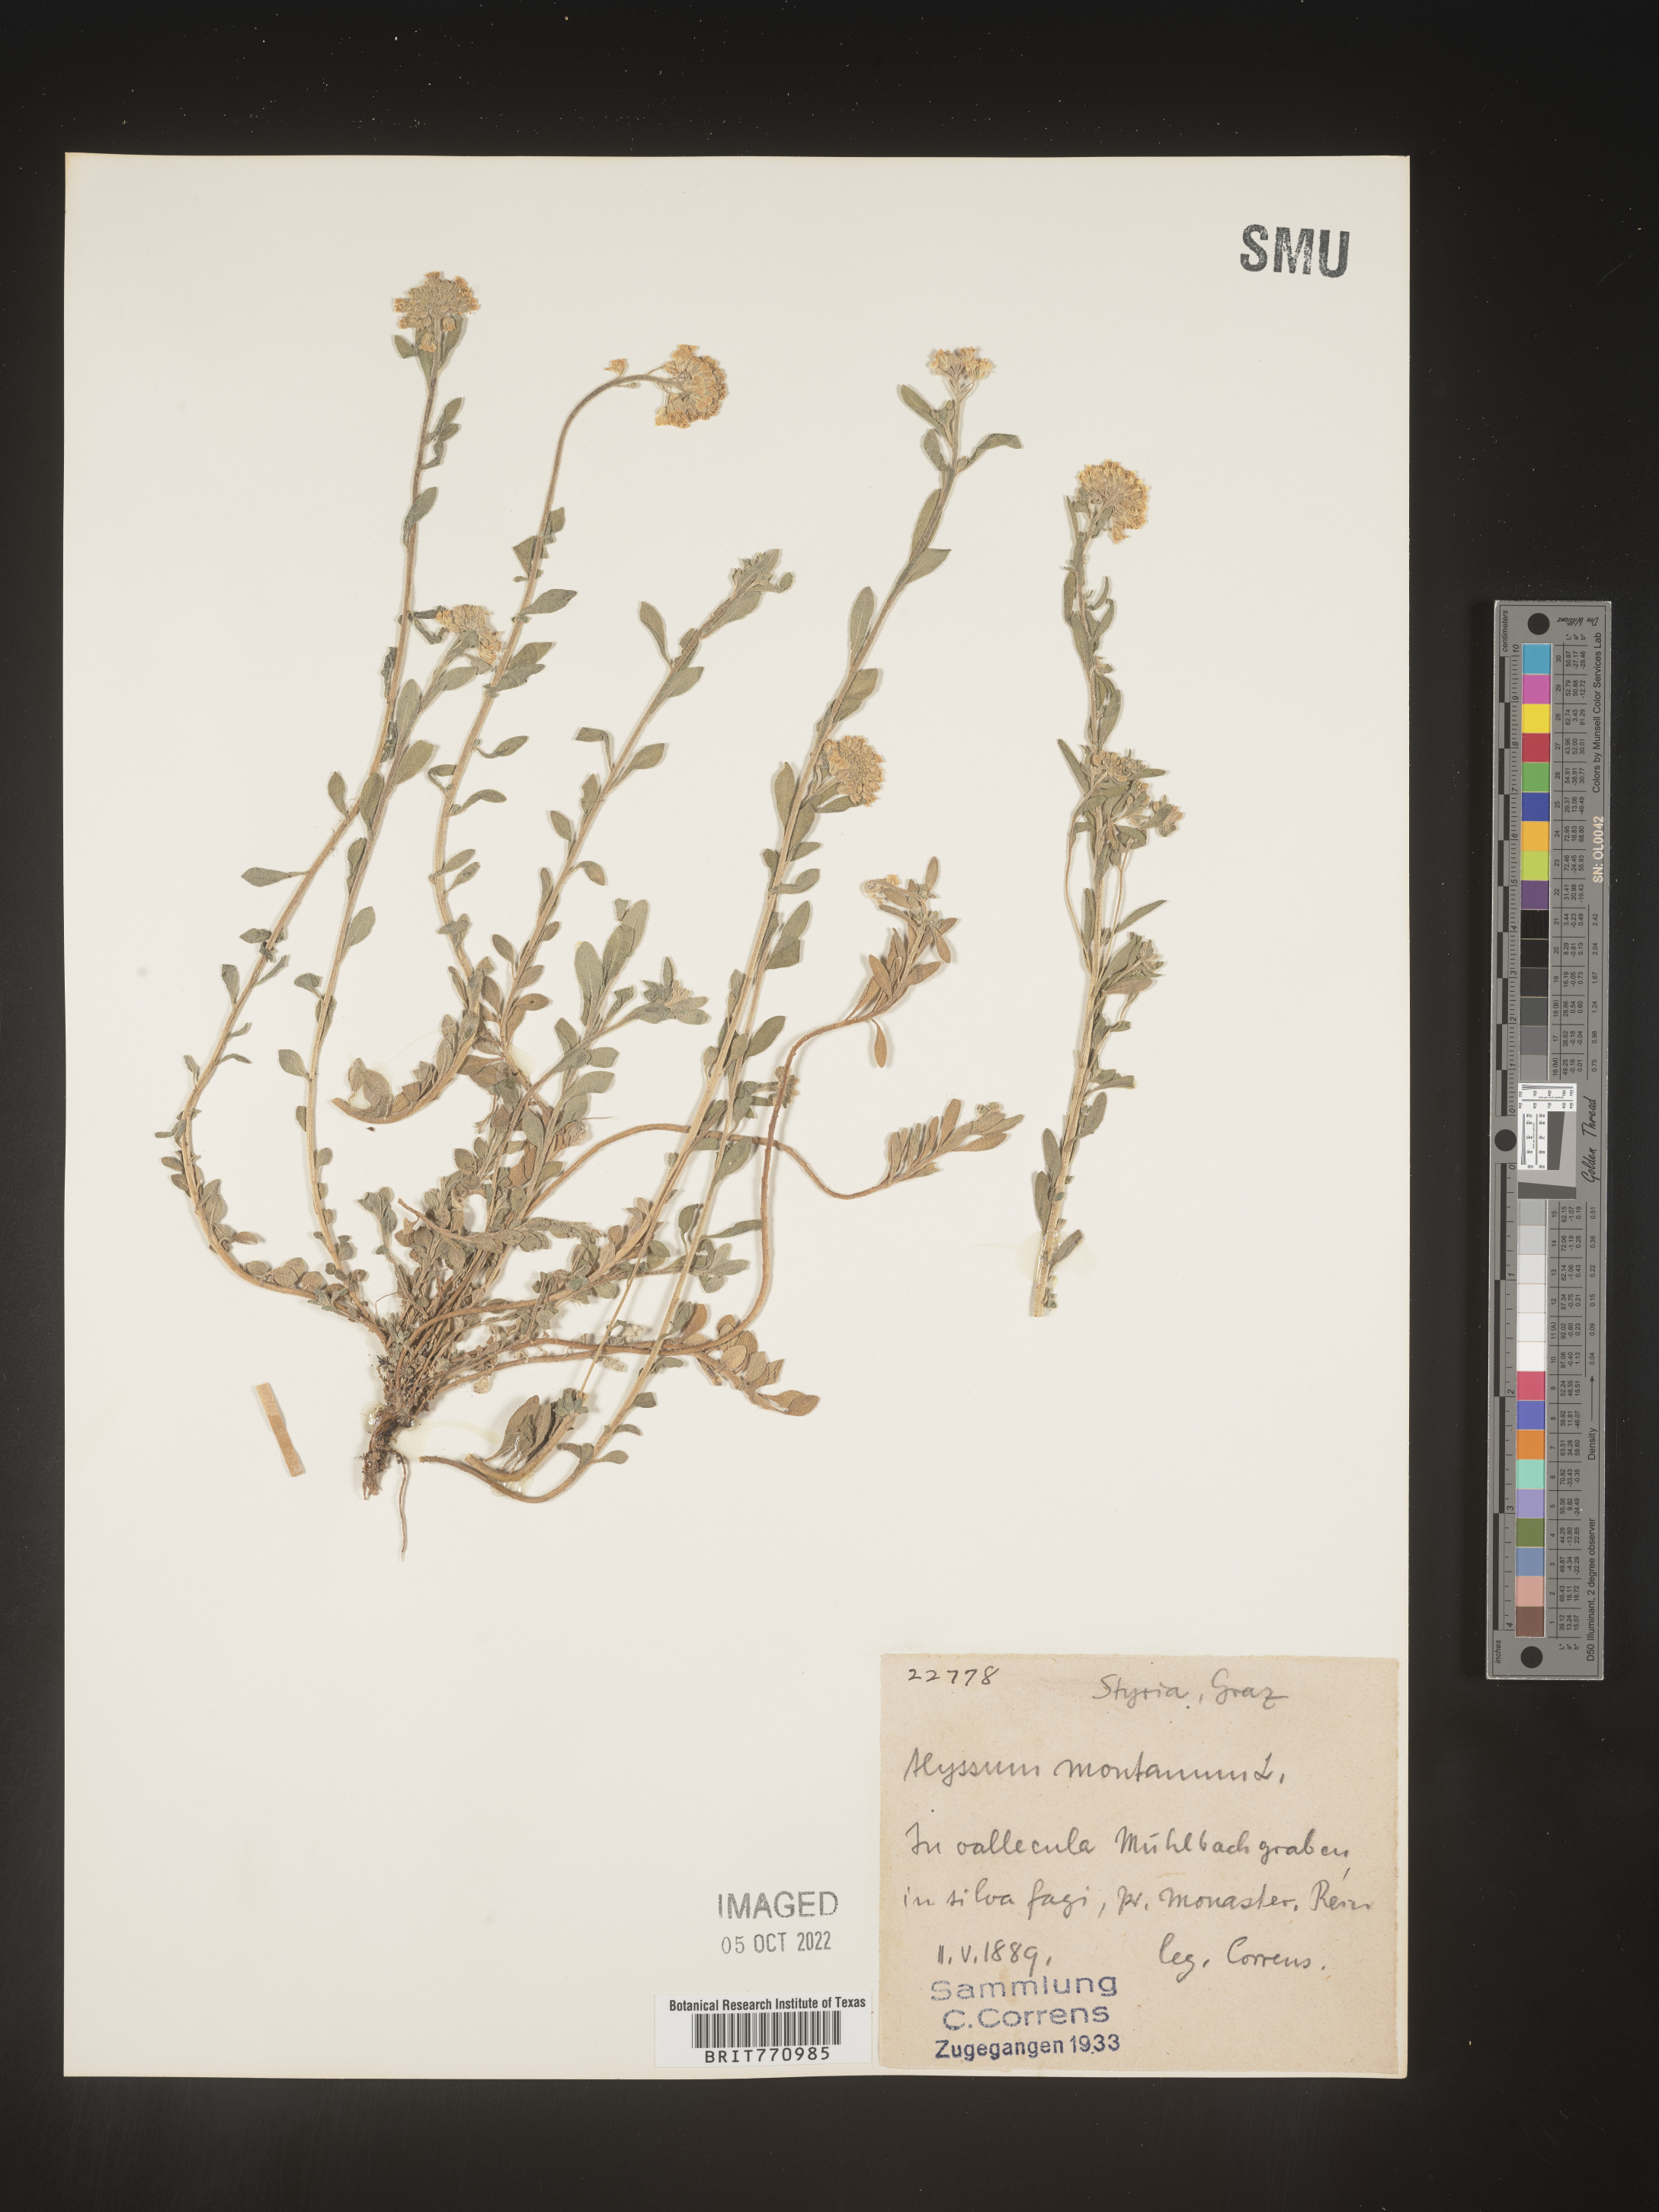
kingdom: Plantae
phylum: Tracheophyta
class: Magnoliopsida
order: Brassicales
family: Brassicaceae
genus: Alyssum
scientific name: Alyssum
